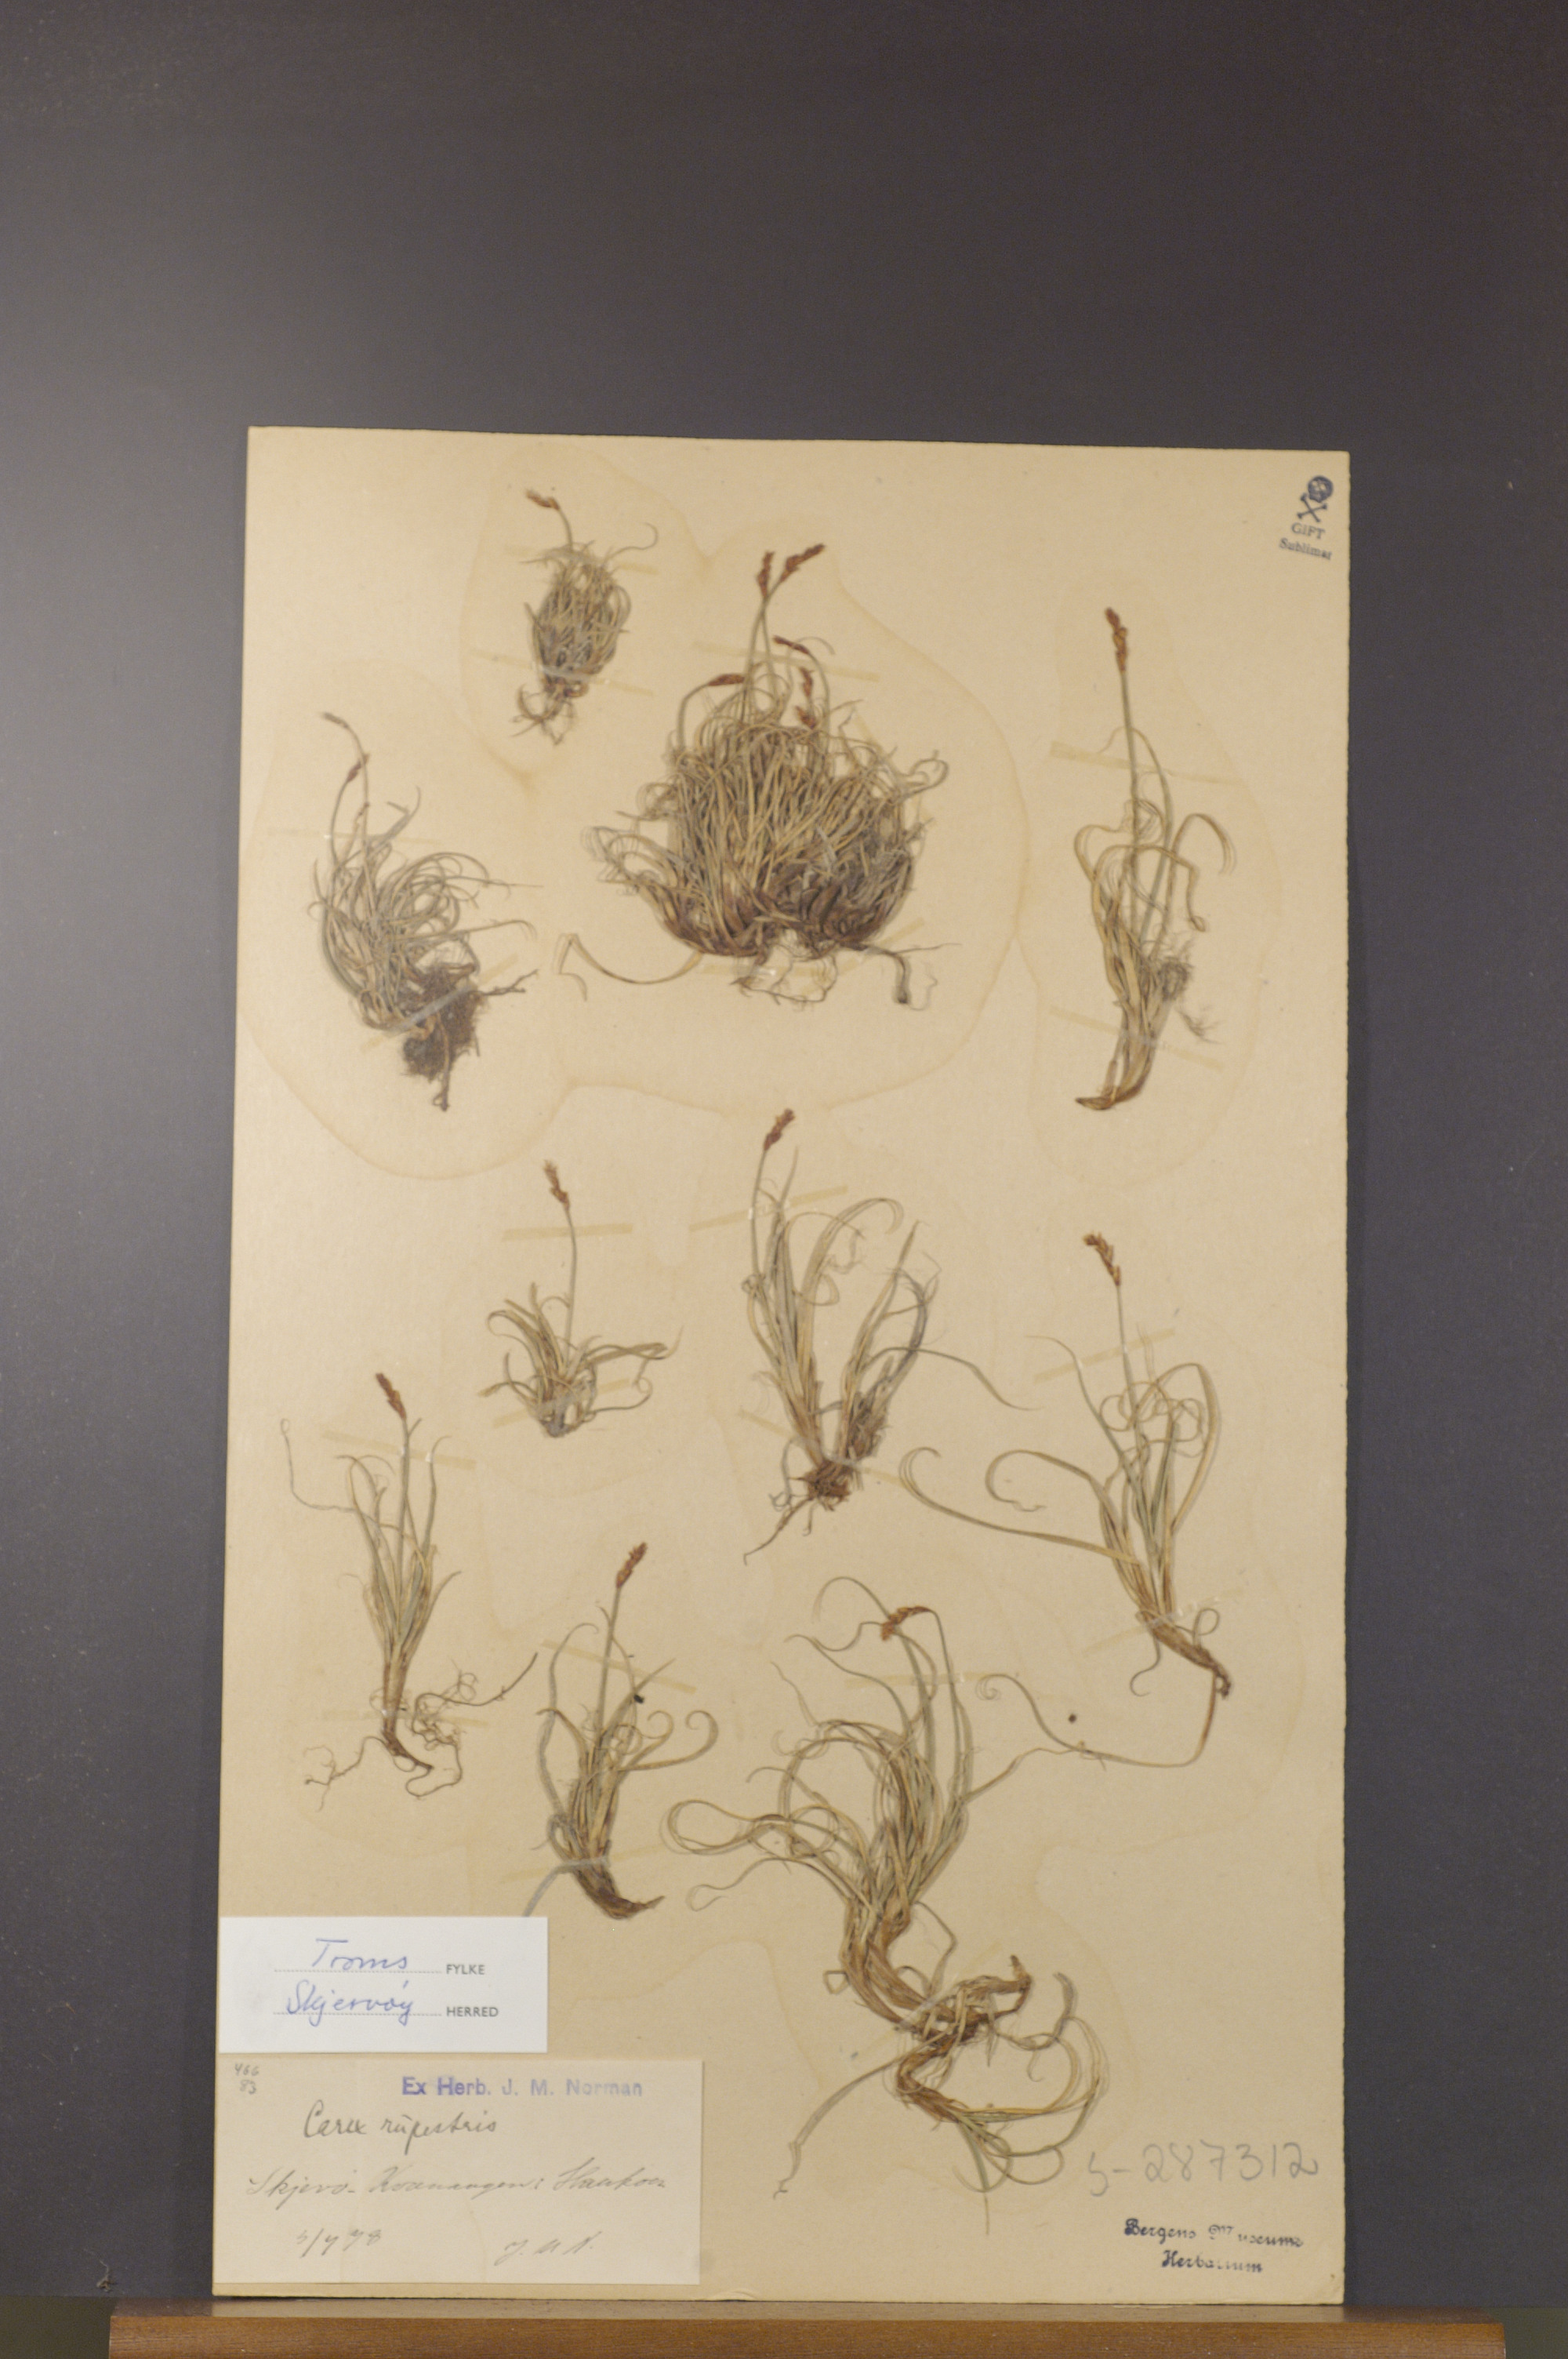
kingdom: Plantae
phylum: Tracheophyta
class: Liliopsida
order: Poales
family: Cyperaceae
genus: Carex
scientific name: Carex rupestris
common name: Rock sedge
